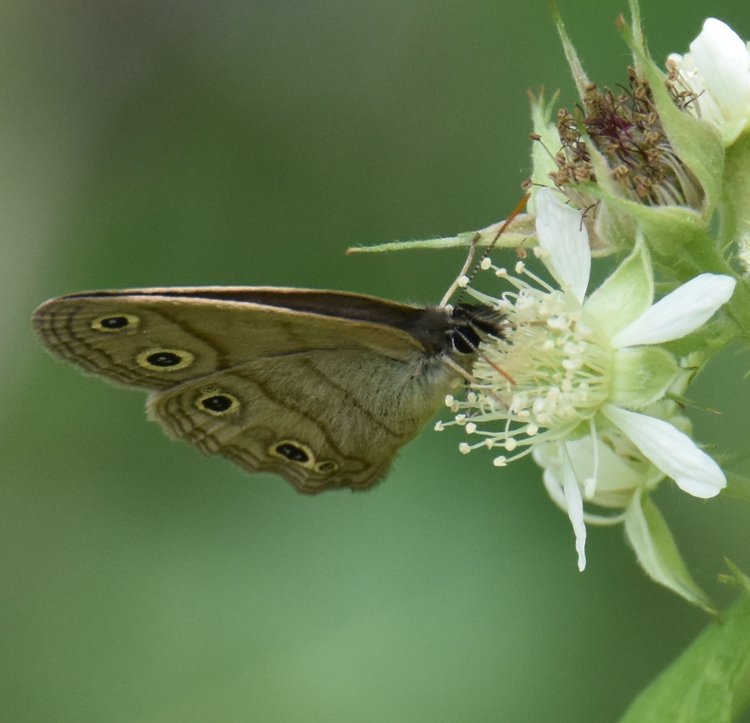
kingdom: Animalia
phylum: Arthropoda
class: Insecta
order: Lepidoptera
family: Nymphalidae
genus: Euptychia
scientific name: Euptychia cymela
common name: Little Wood Satyr
